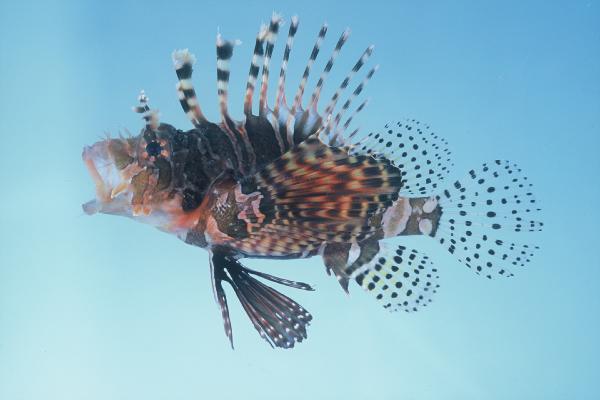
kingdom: Animalia
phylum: Chordata
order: Scorpaeniformes
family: Scorpaenidae
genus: Dendrochirus
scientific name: Dendrochirus zebra
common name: Zebra lionfish
